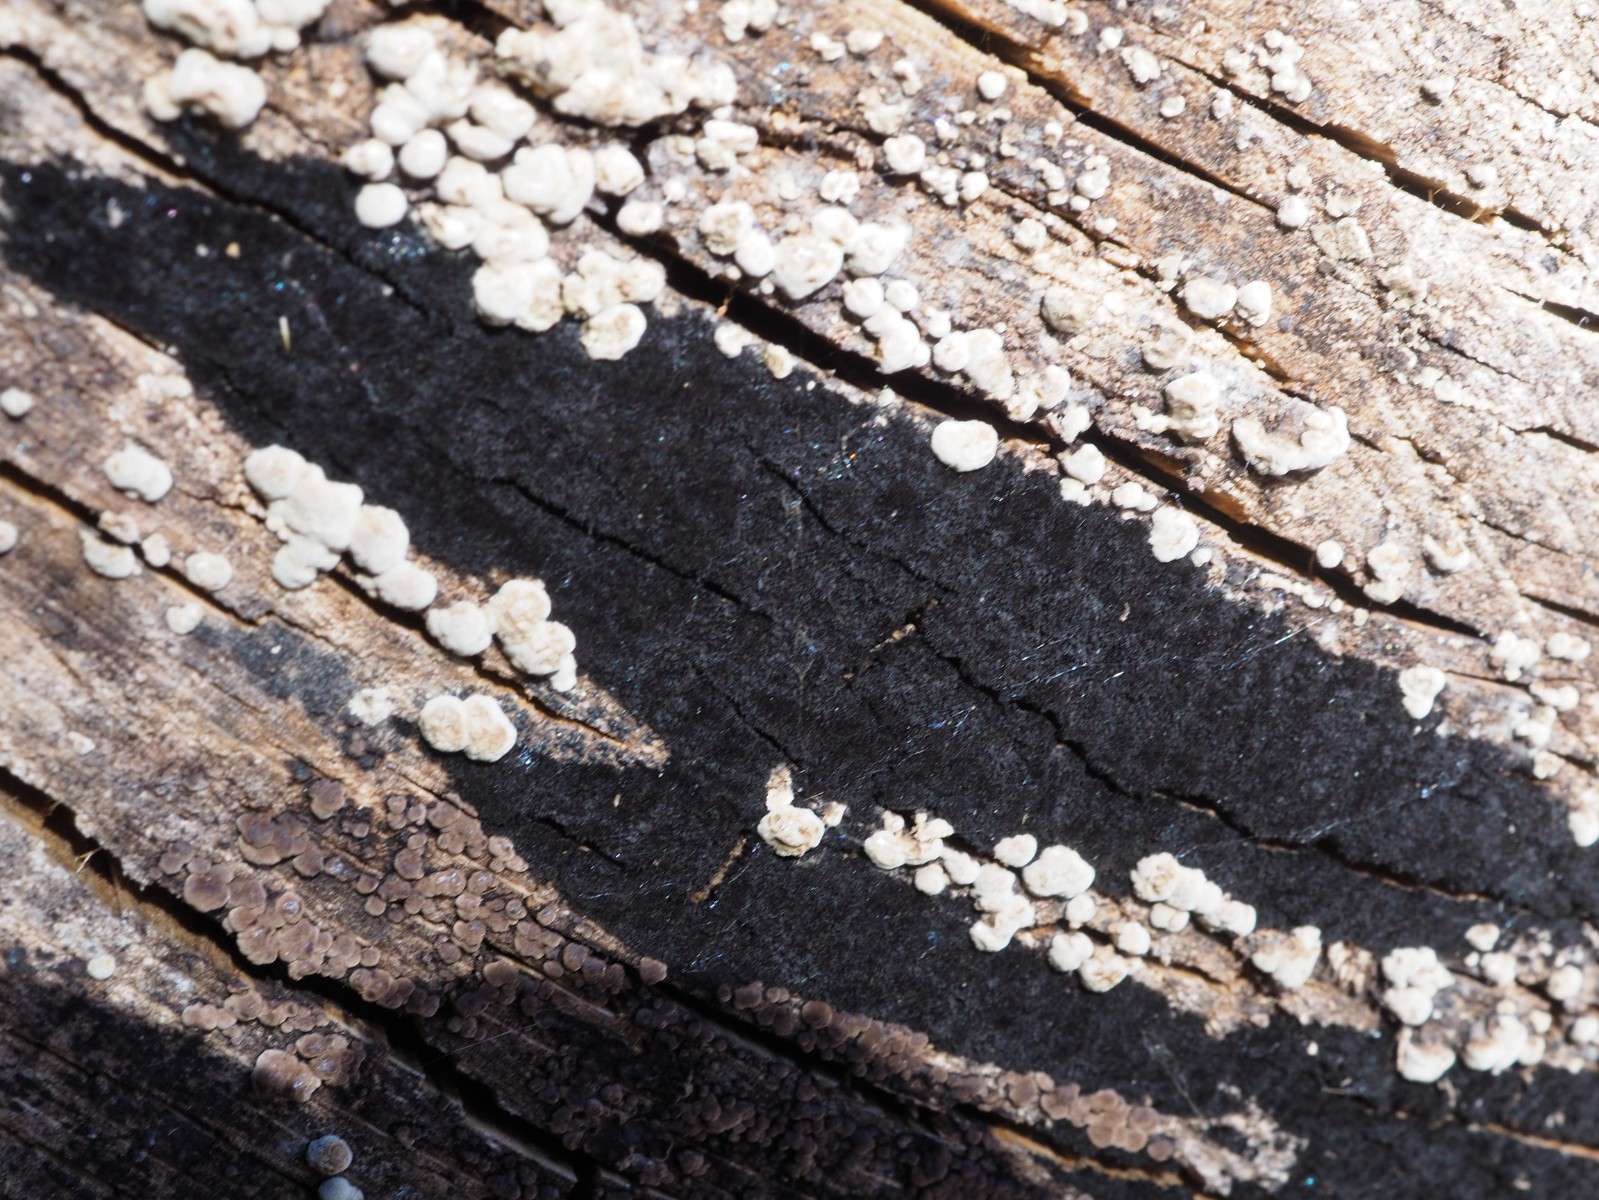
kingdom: Fungi
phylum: Ascomycota
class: Leotiomycetes
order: Helotiales
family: Helotiaceae
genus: Bispora
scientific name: Bispora pallescens
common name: måtte-snitskive
